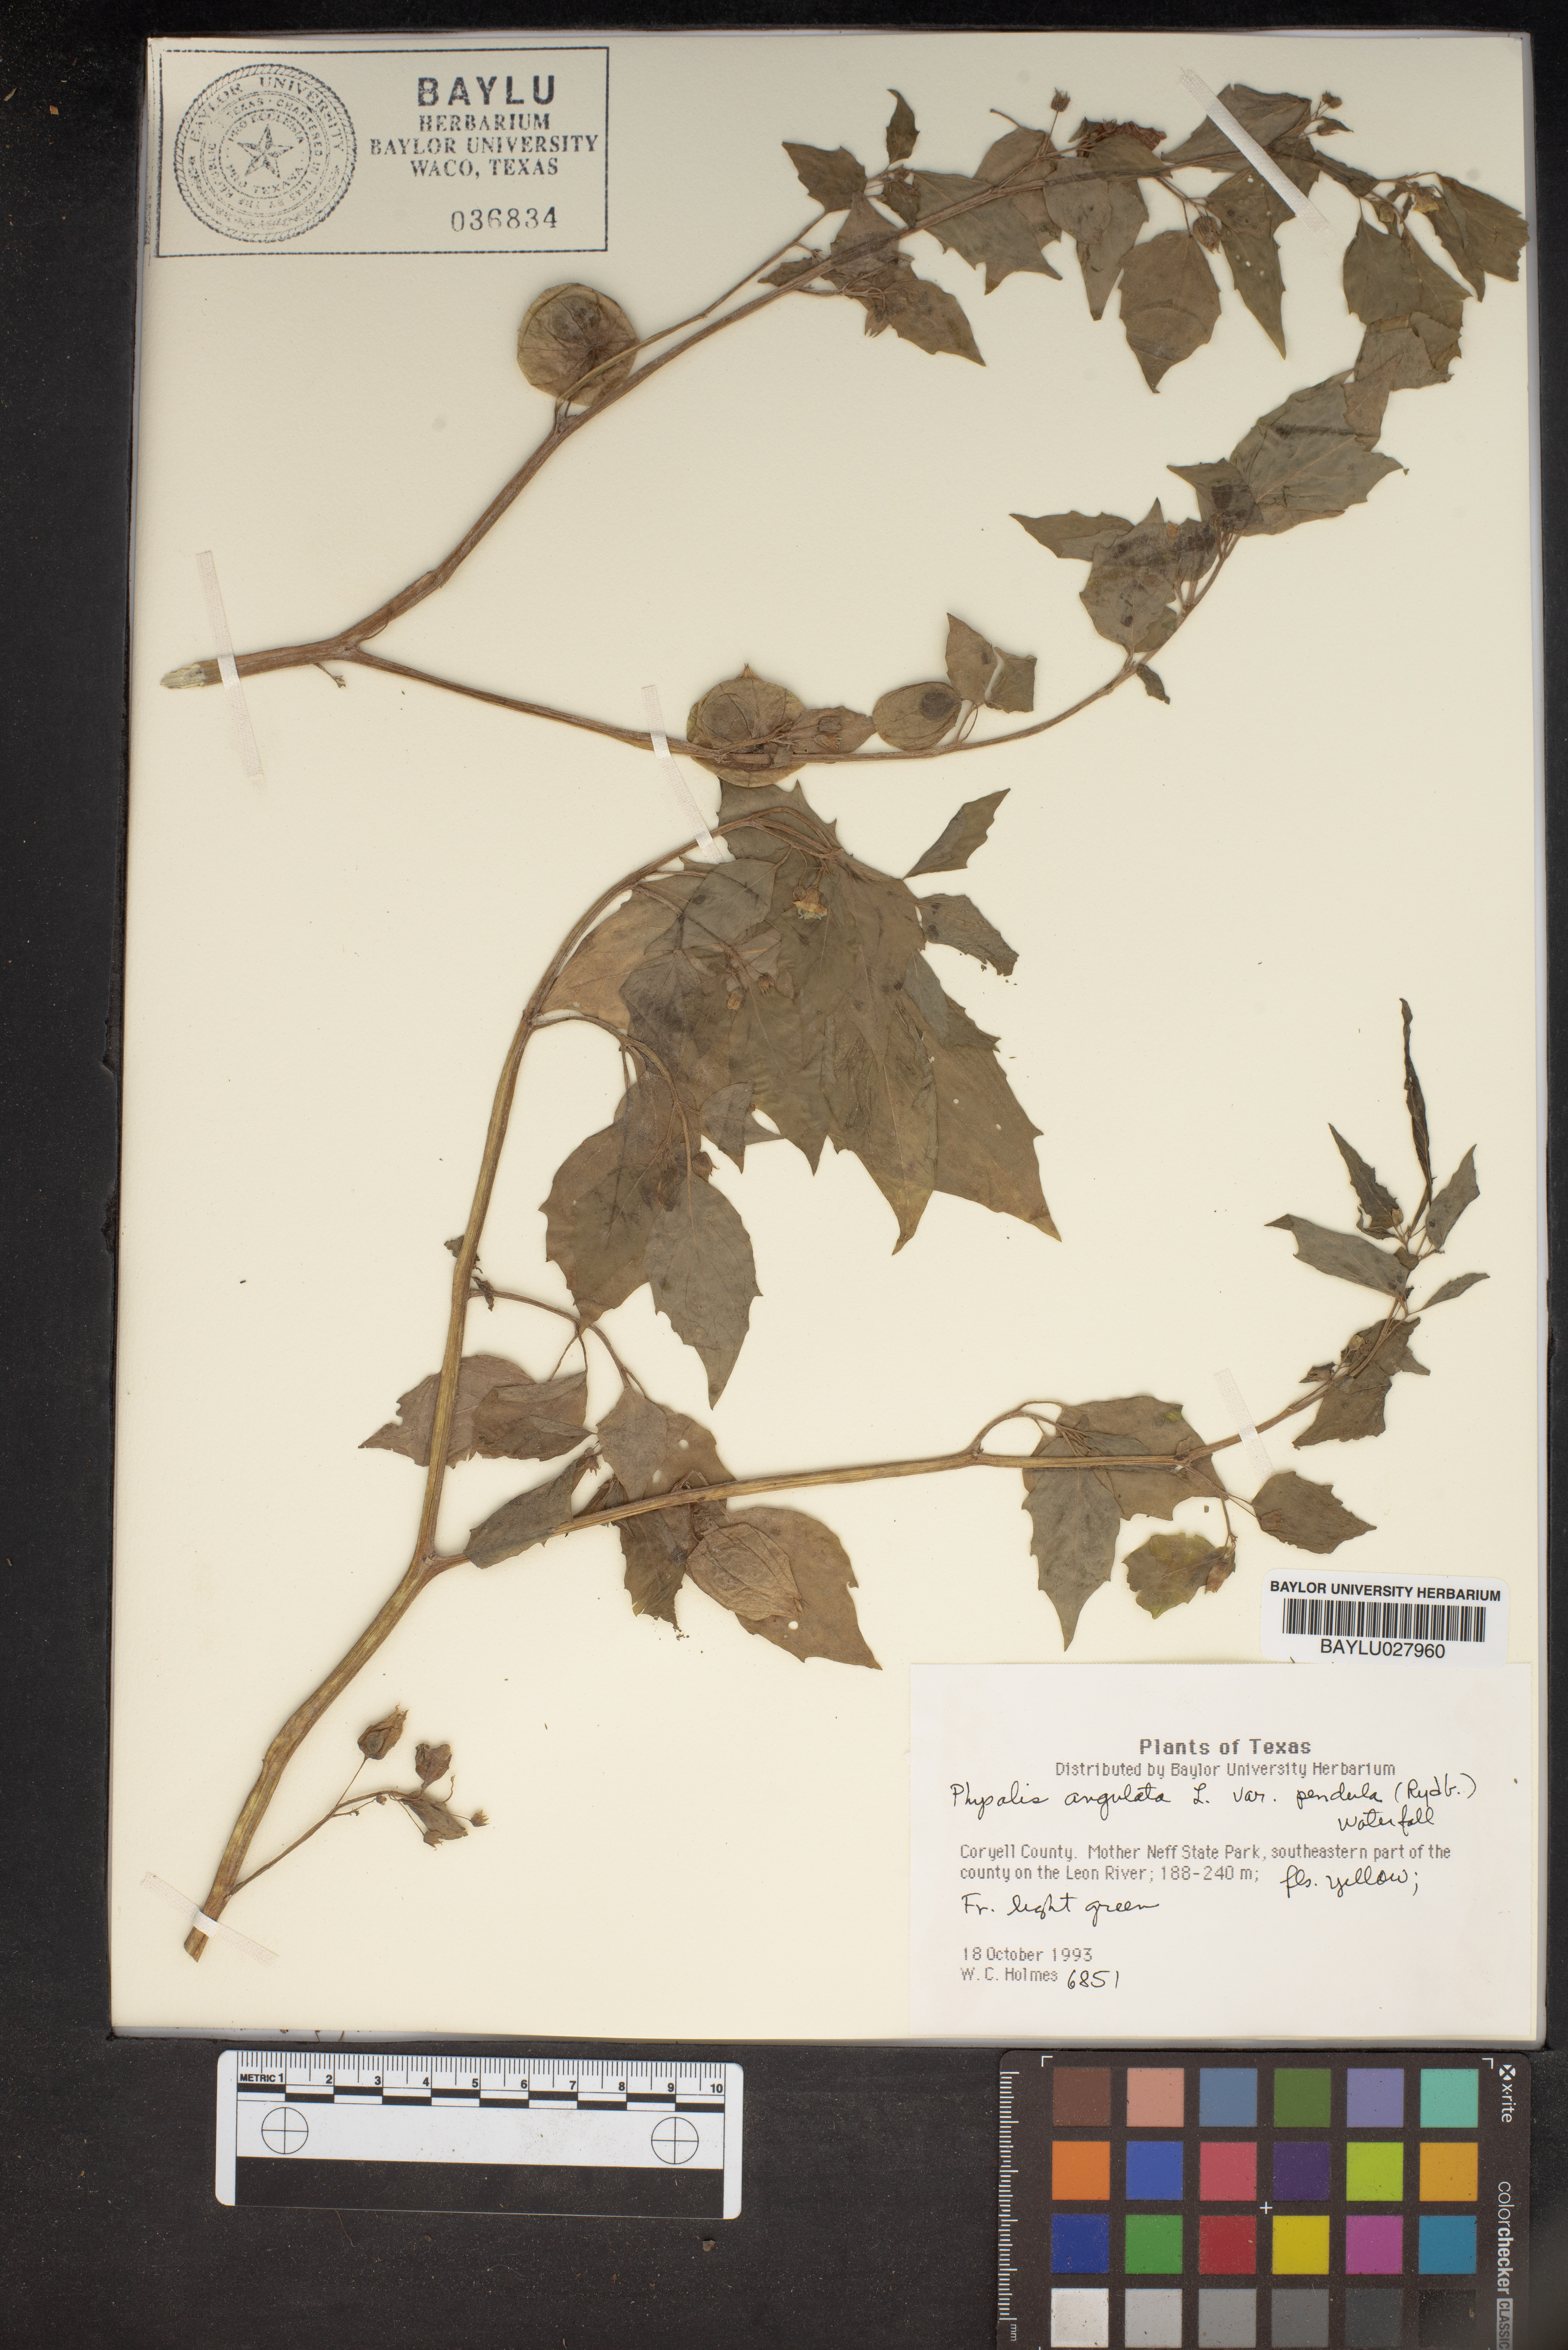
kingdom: Plantae
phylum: Tracheophyta
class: Magnoliopsida
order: Solanales
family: Solanaceae
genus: Physalis
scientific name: Physalis angulata
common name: Angular winter-cherry
